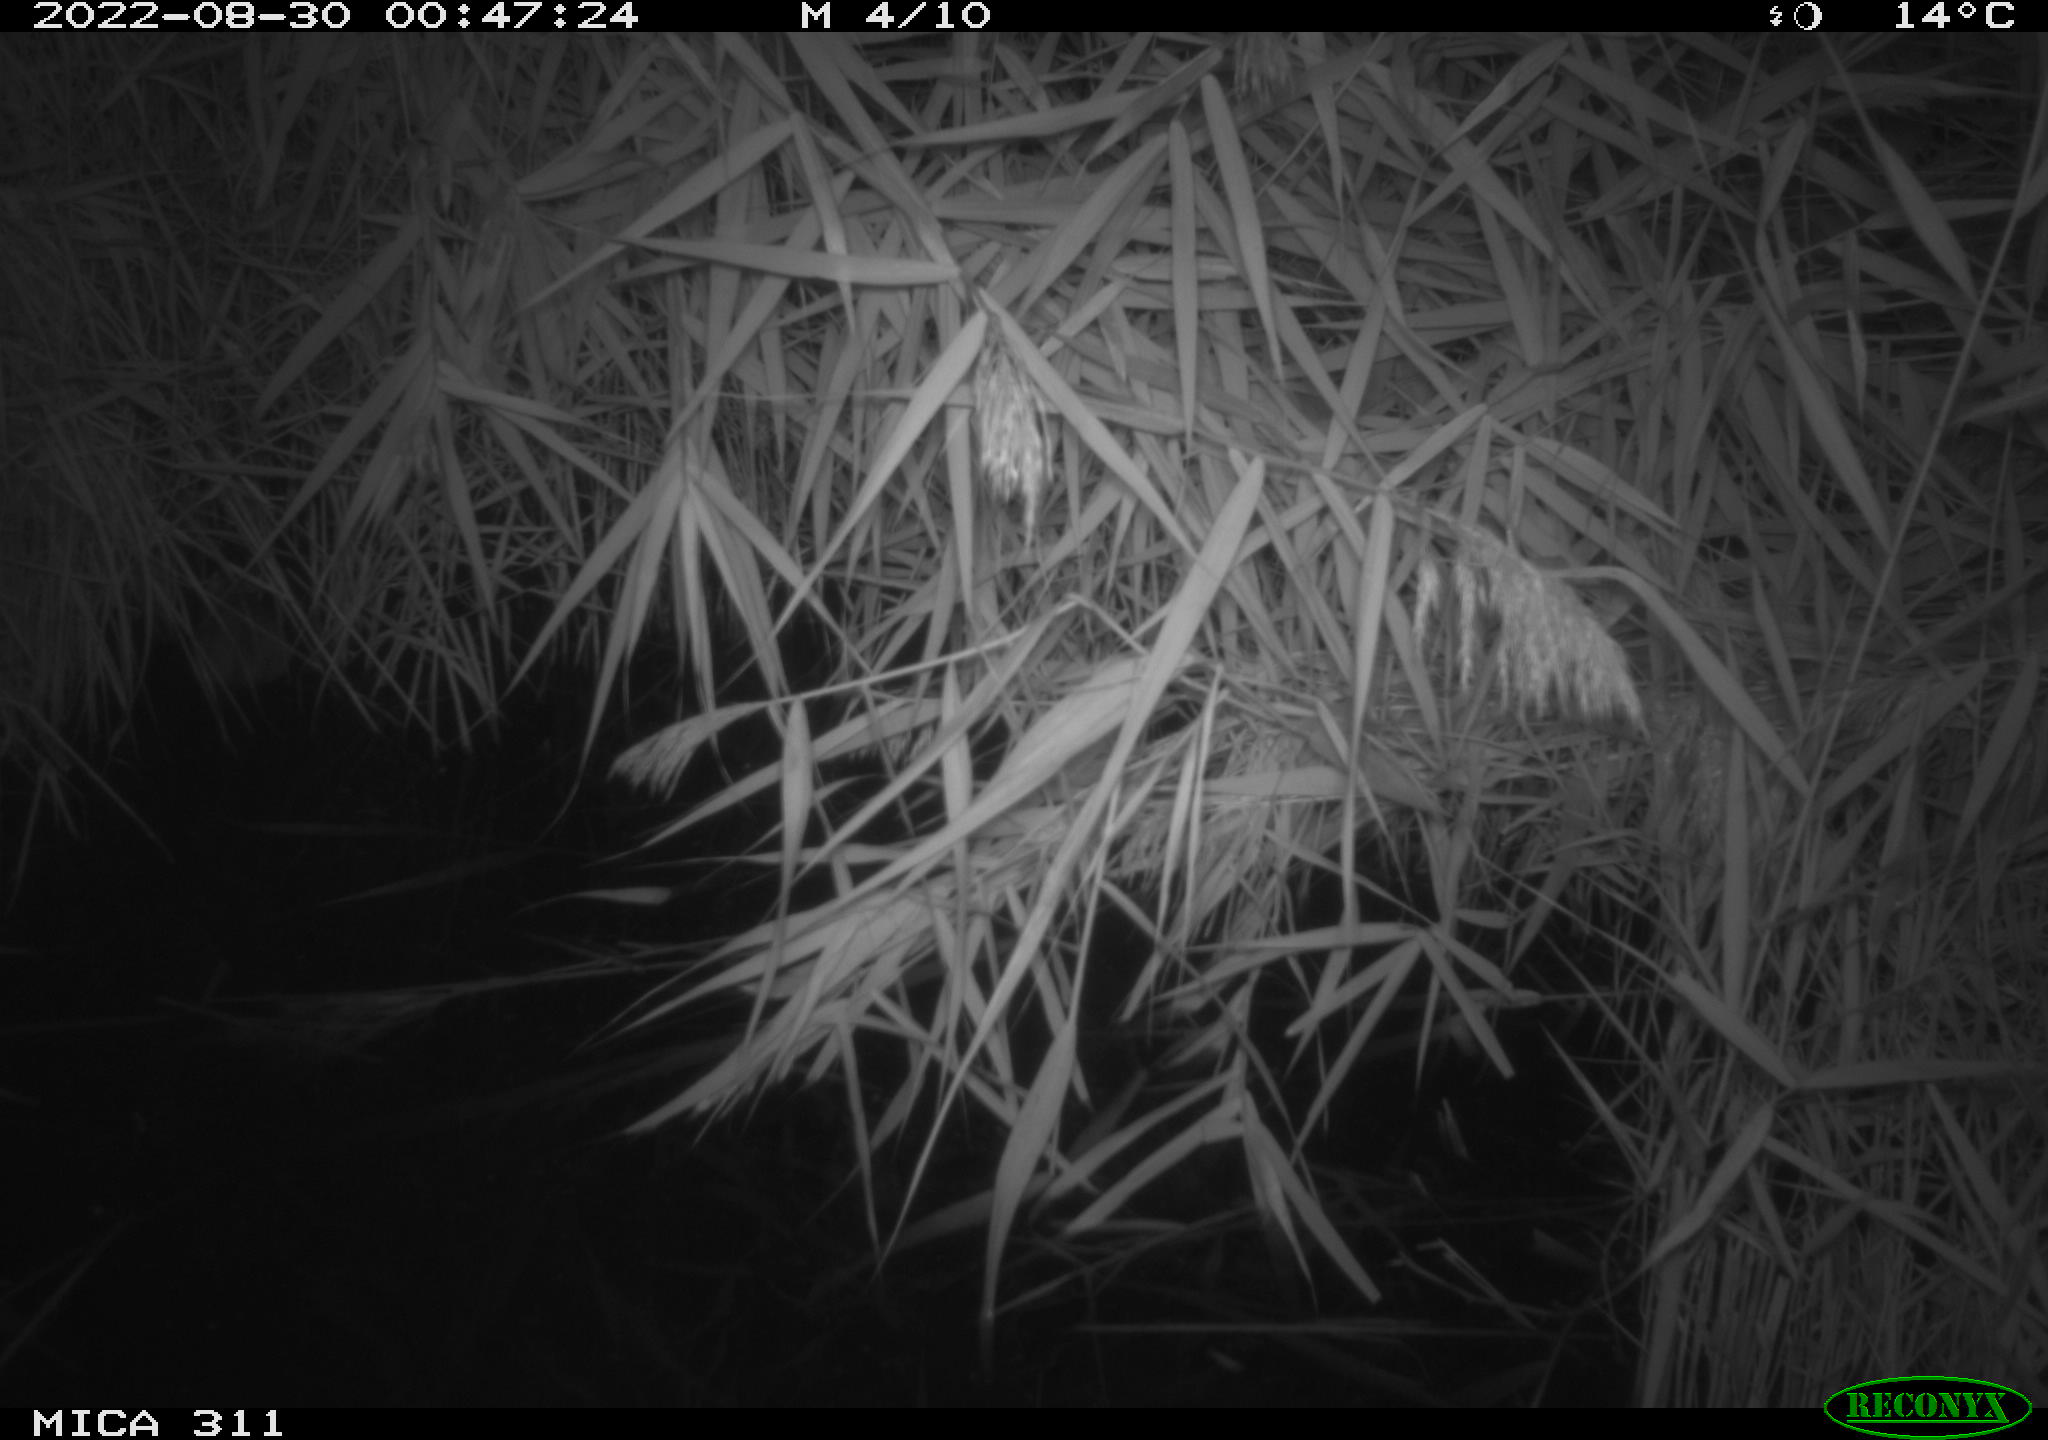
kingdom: Animalia
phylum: Chordata
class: Mammalia
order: Rodentia
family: Muridae
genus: Rattus
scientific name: Rattus norvegicus
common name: Brown rat
